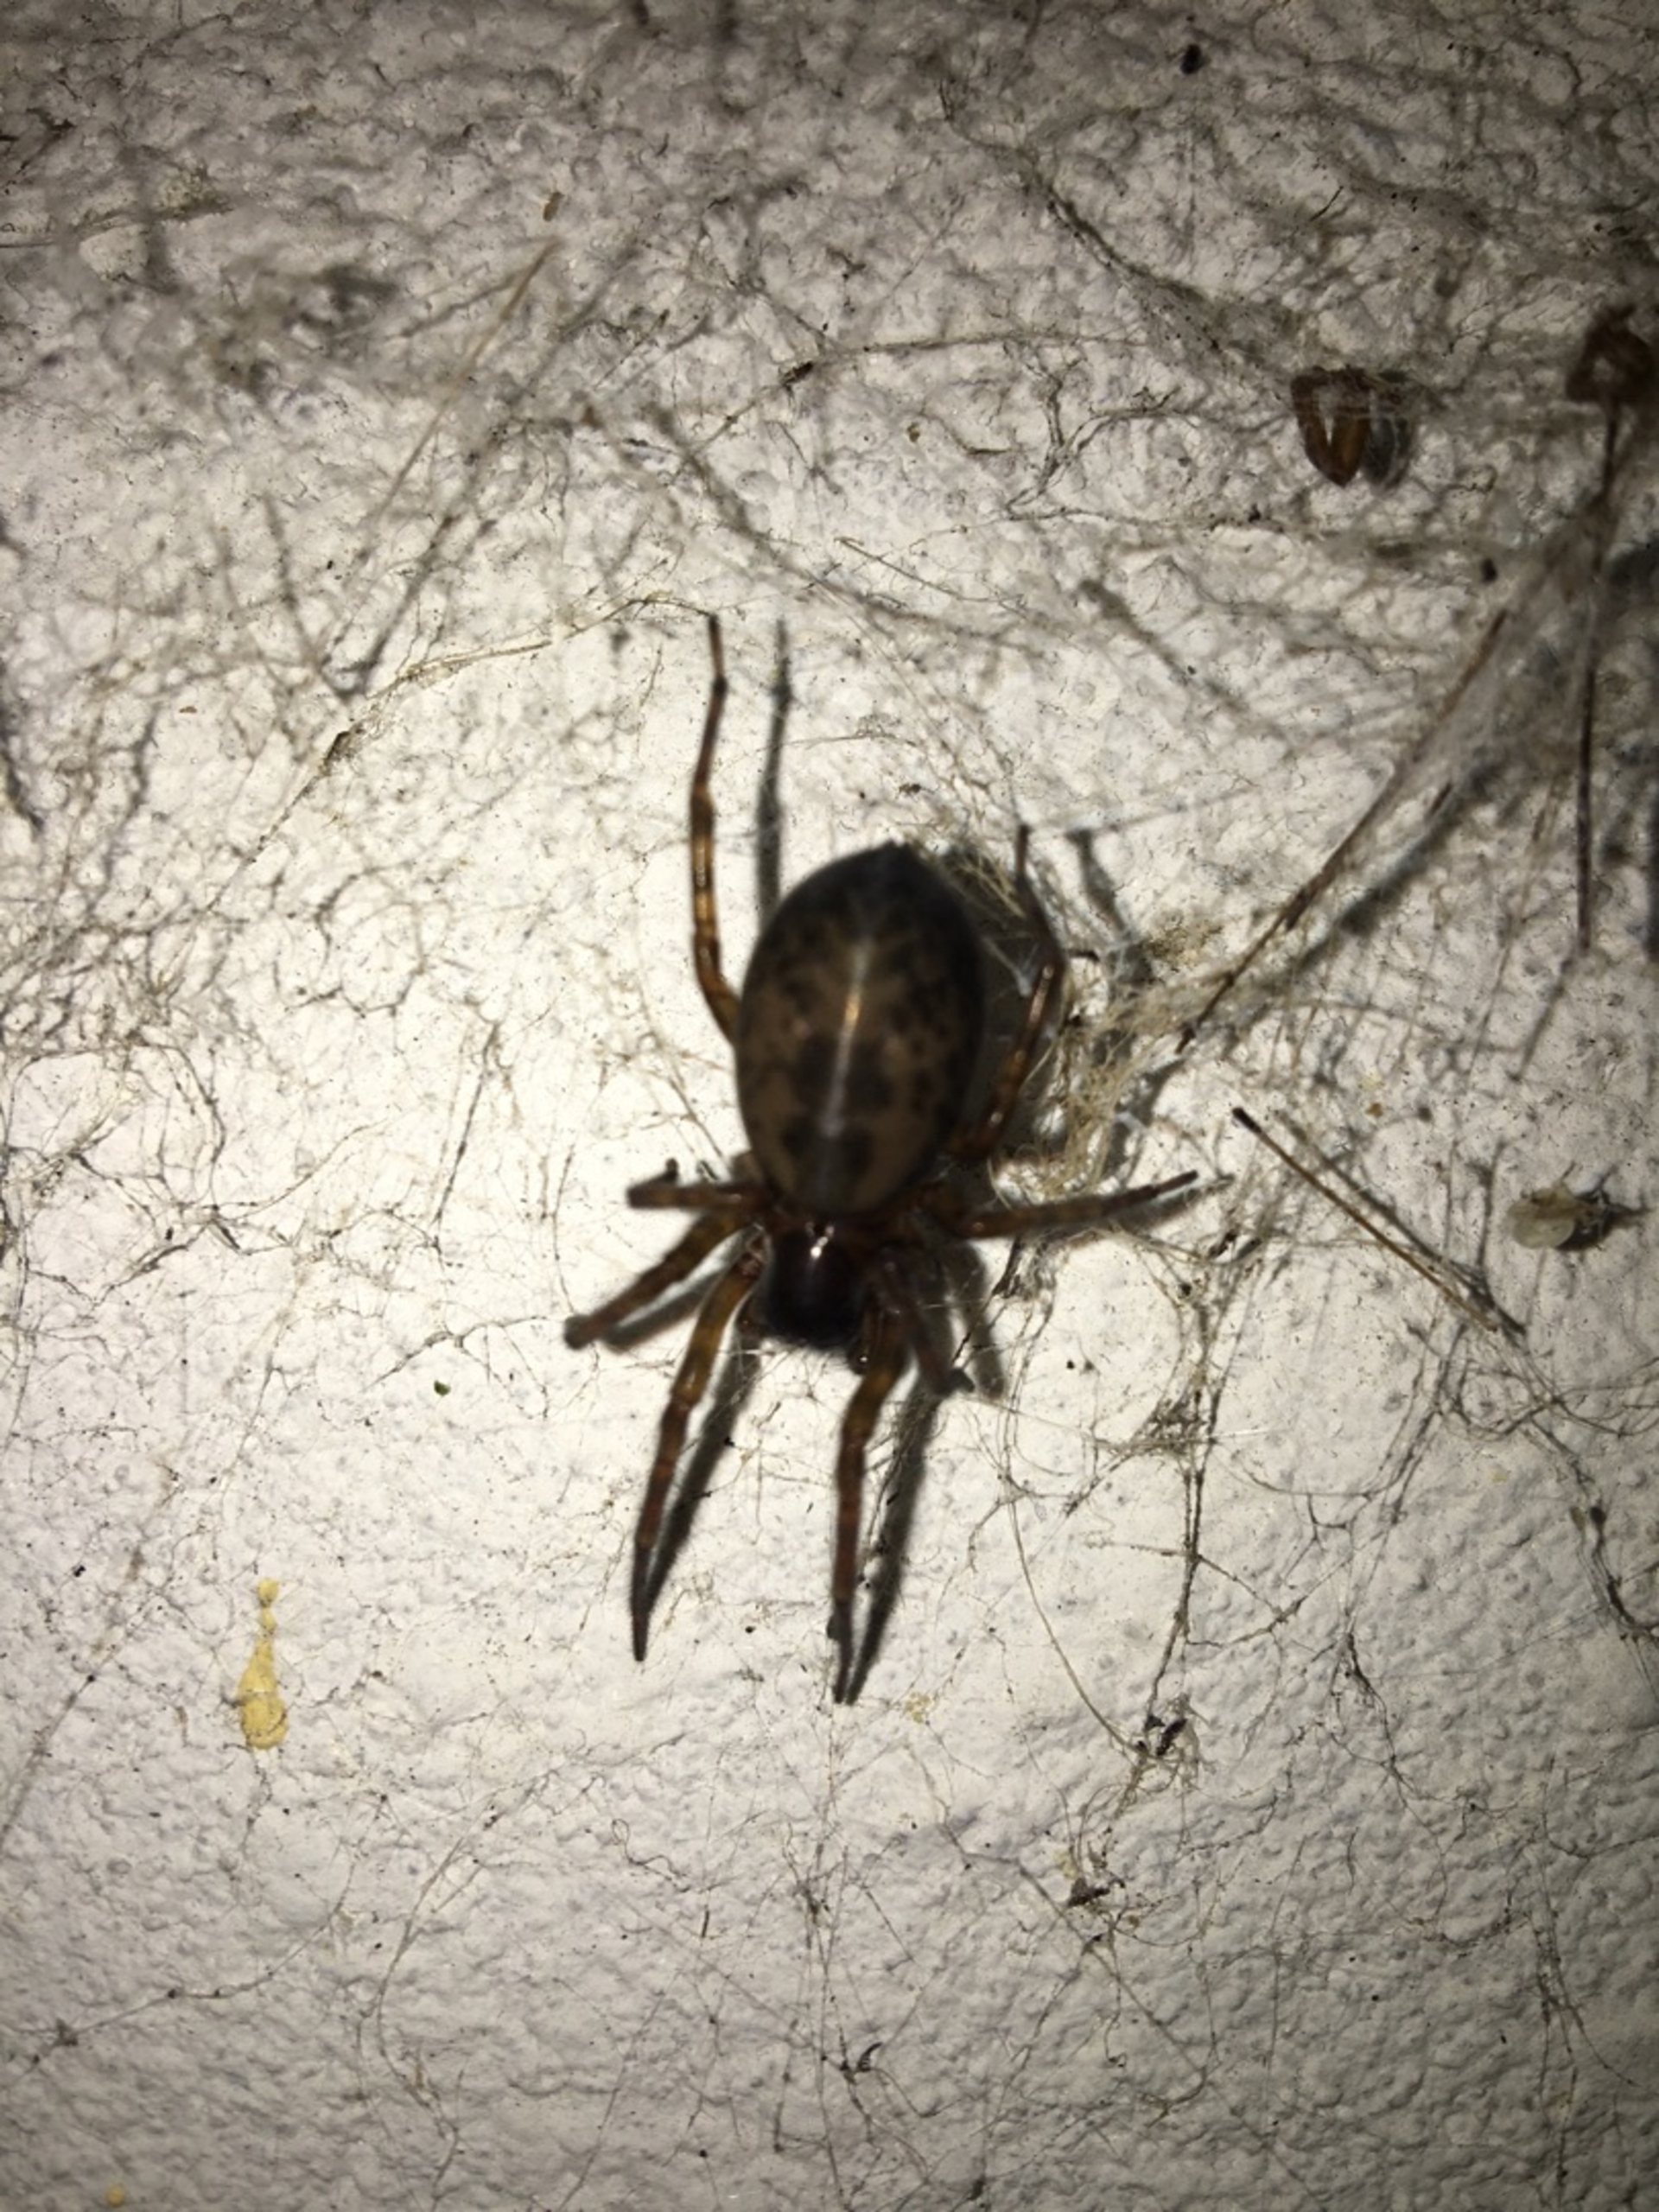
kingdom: Animalia
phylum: Arthropoda
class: Arachnida
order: Araneae
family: Amaurobiidae
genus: Amaurobius
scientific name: Amaurobius similis
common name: Huskartespinder
